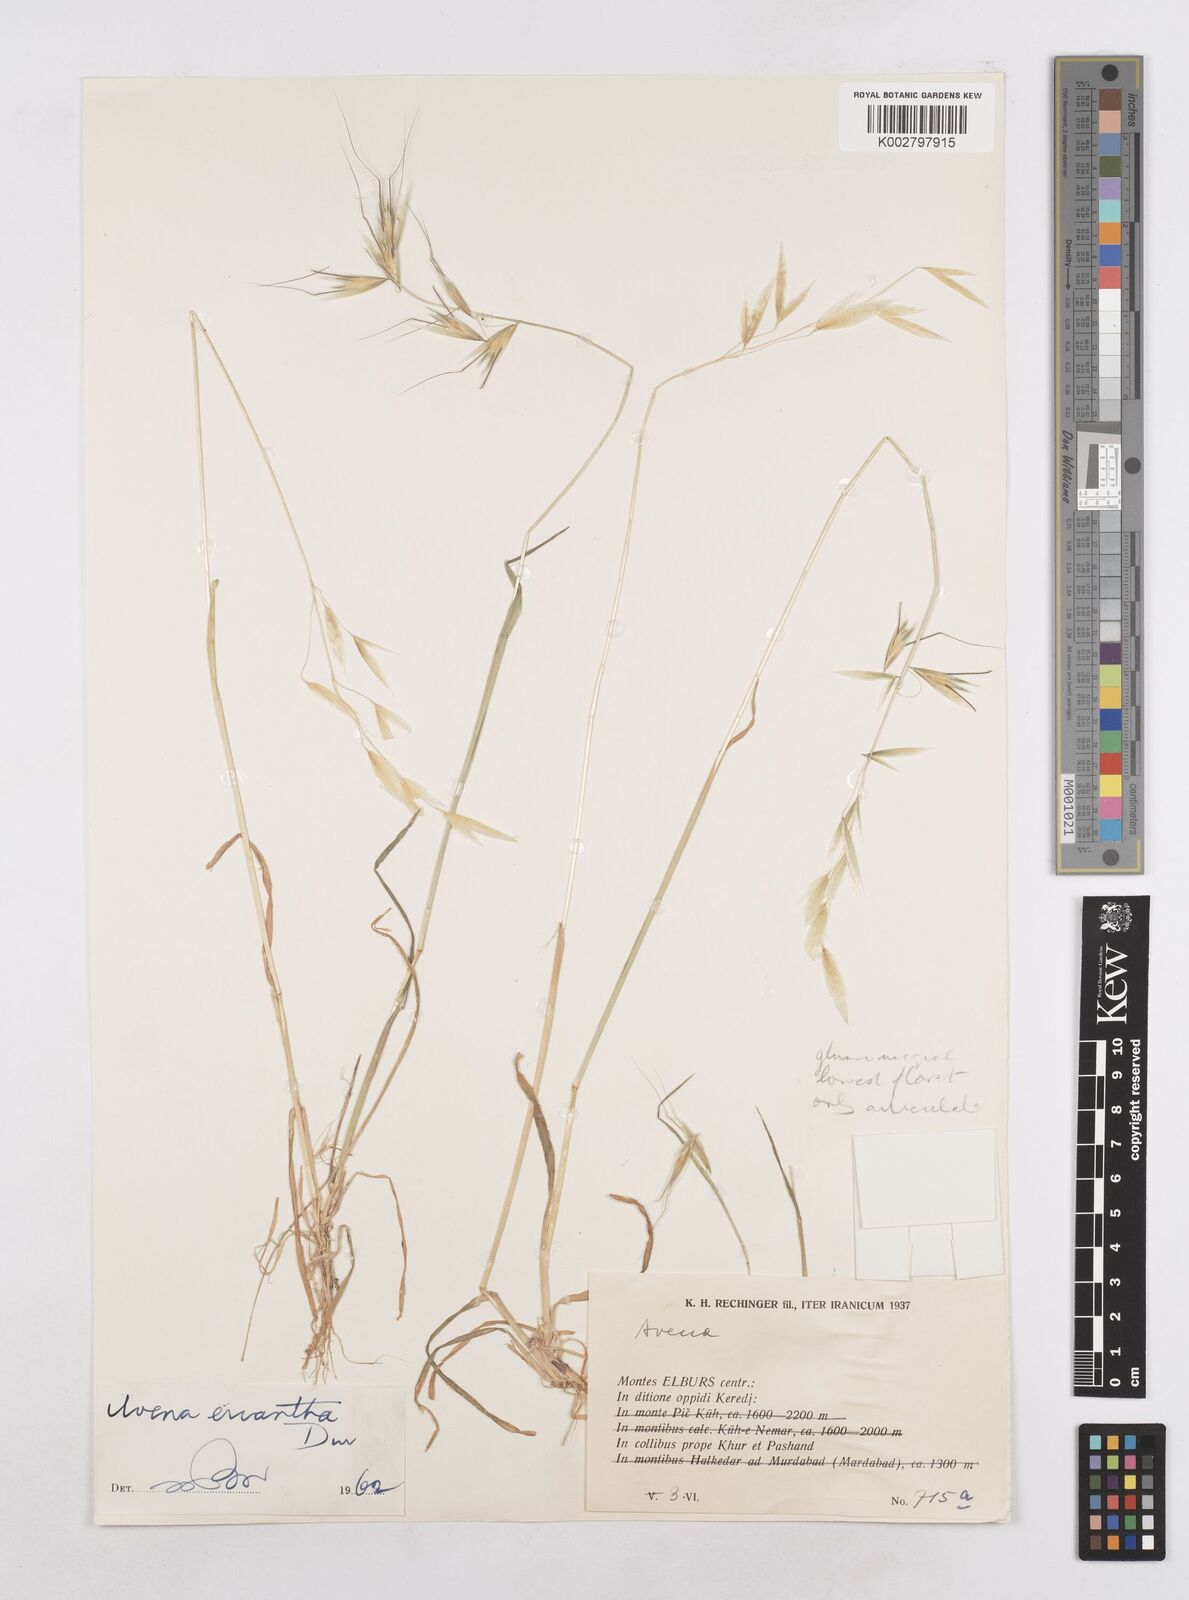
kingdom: Plantae
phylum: Tracheophyta
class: Liliopsida
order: Poales
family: Poaceae
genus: Avena
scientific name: Avena eriantha
